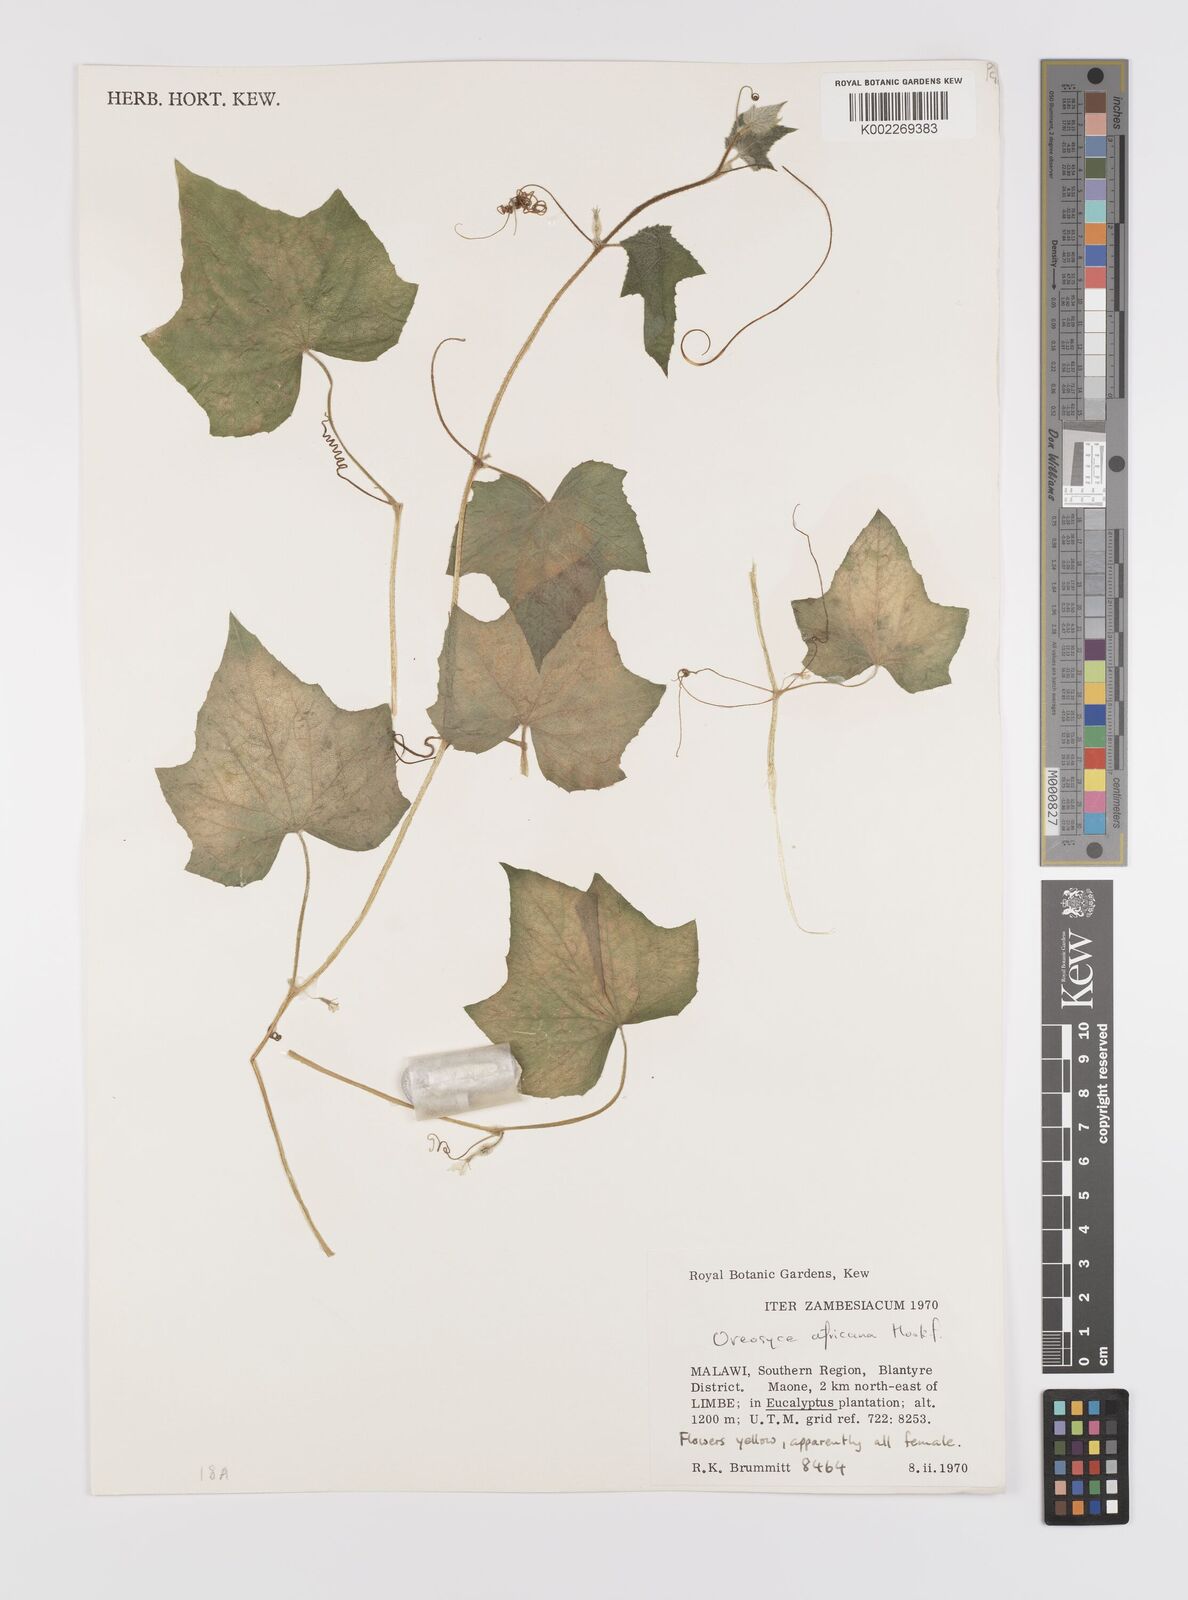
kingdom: Plantae
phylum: Tracheophyta
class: Magnoliopsida
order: Cucurbitales
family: Cucurbitaceae
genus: Cucumis
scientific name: Cucumis oreosyce
